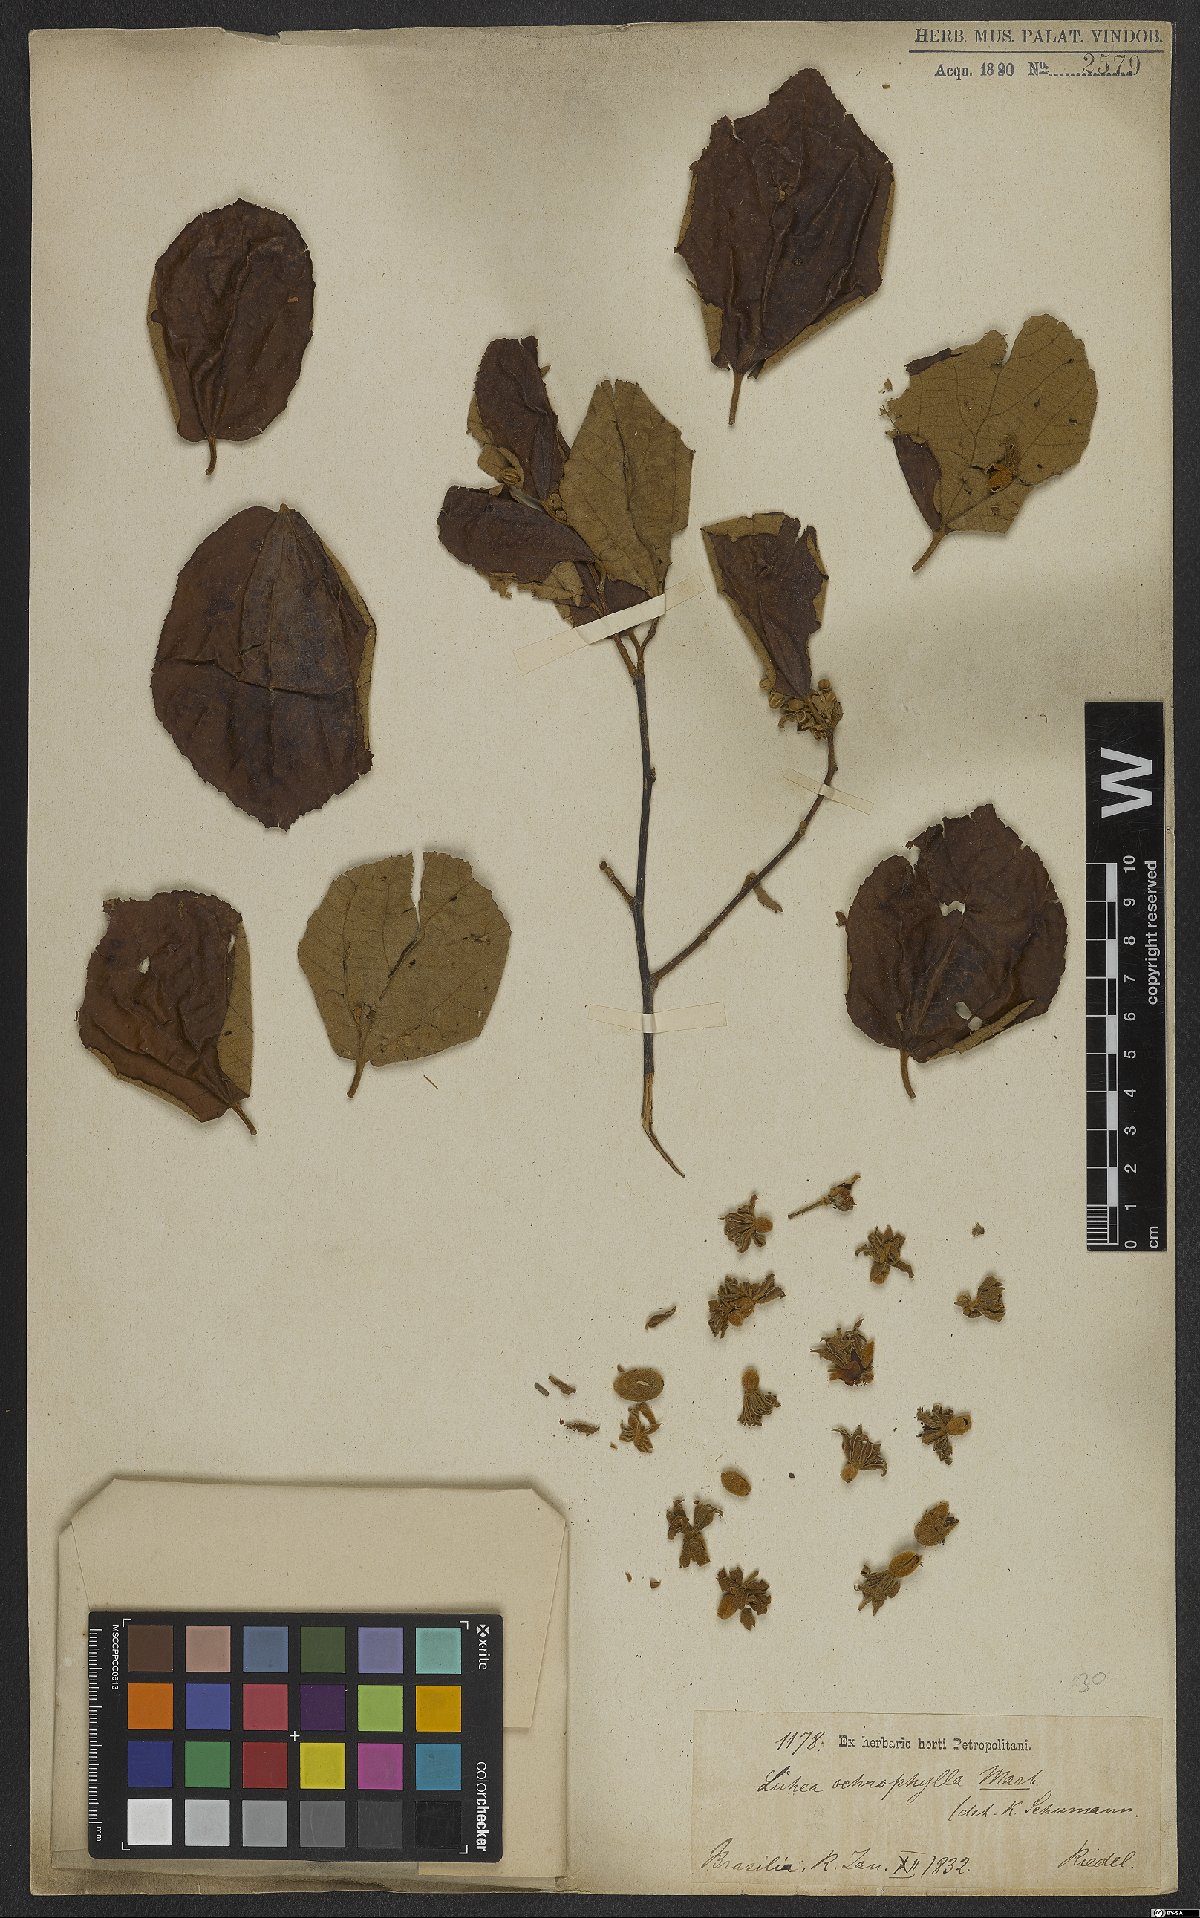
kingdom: Plantae
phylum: Tracheophyta
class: Magnoliopsida
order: Malvales
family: Malvaceae
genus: Luehea
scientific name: Luehea ochrophylla
